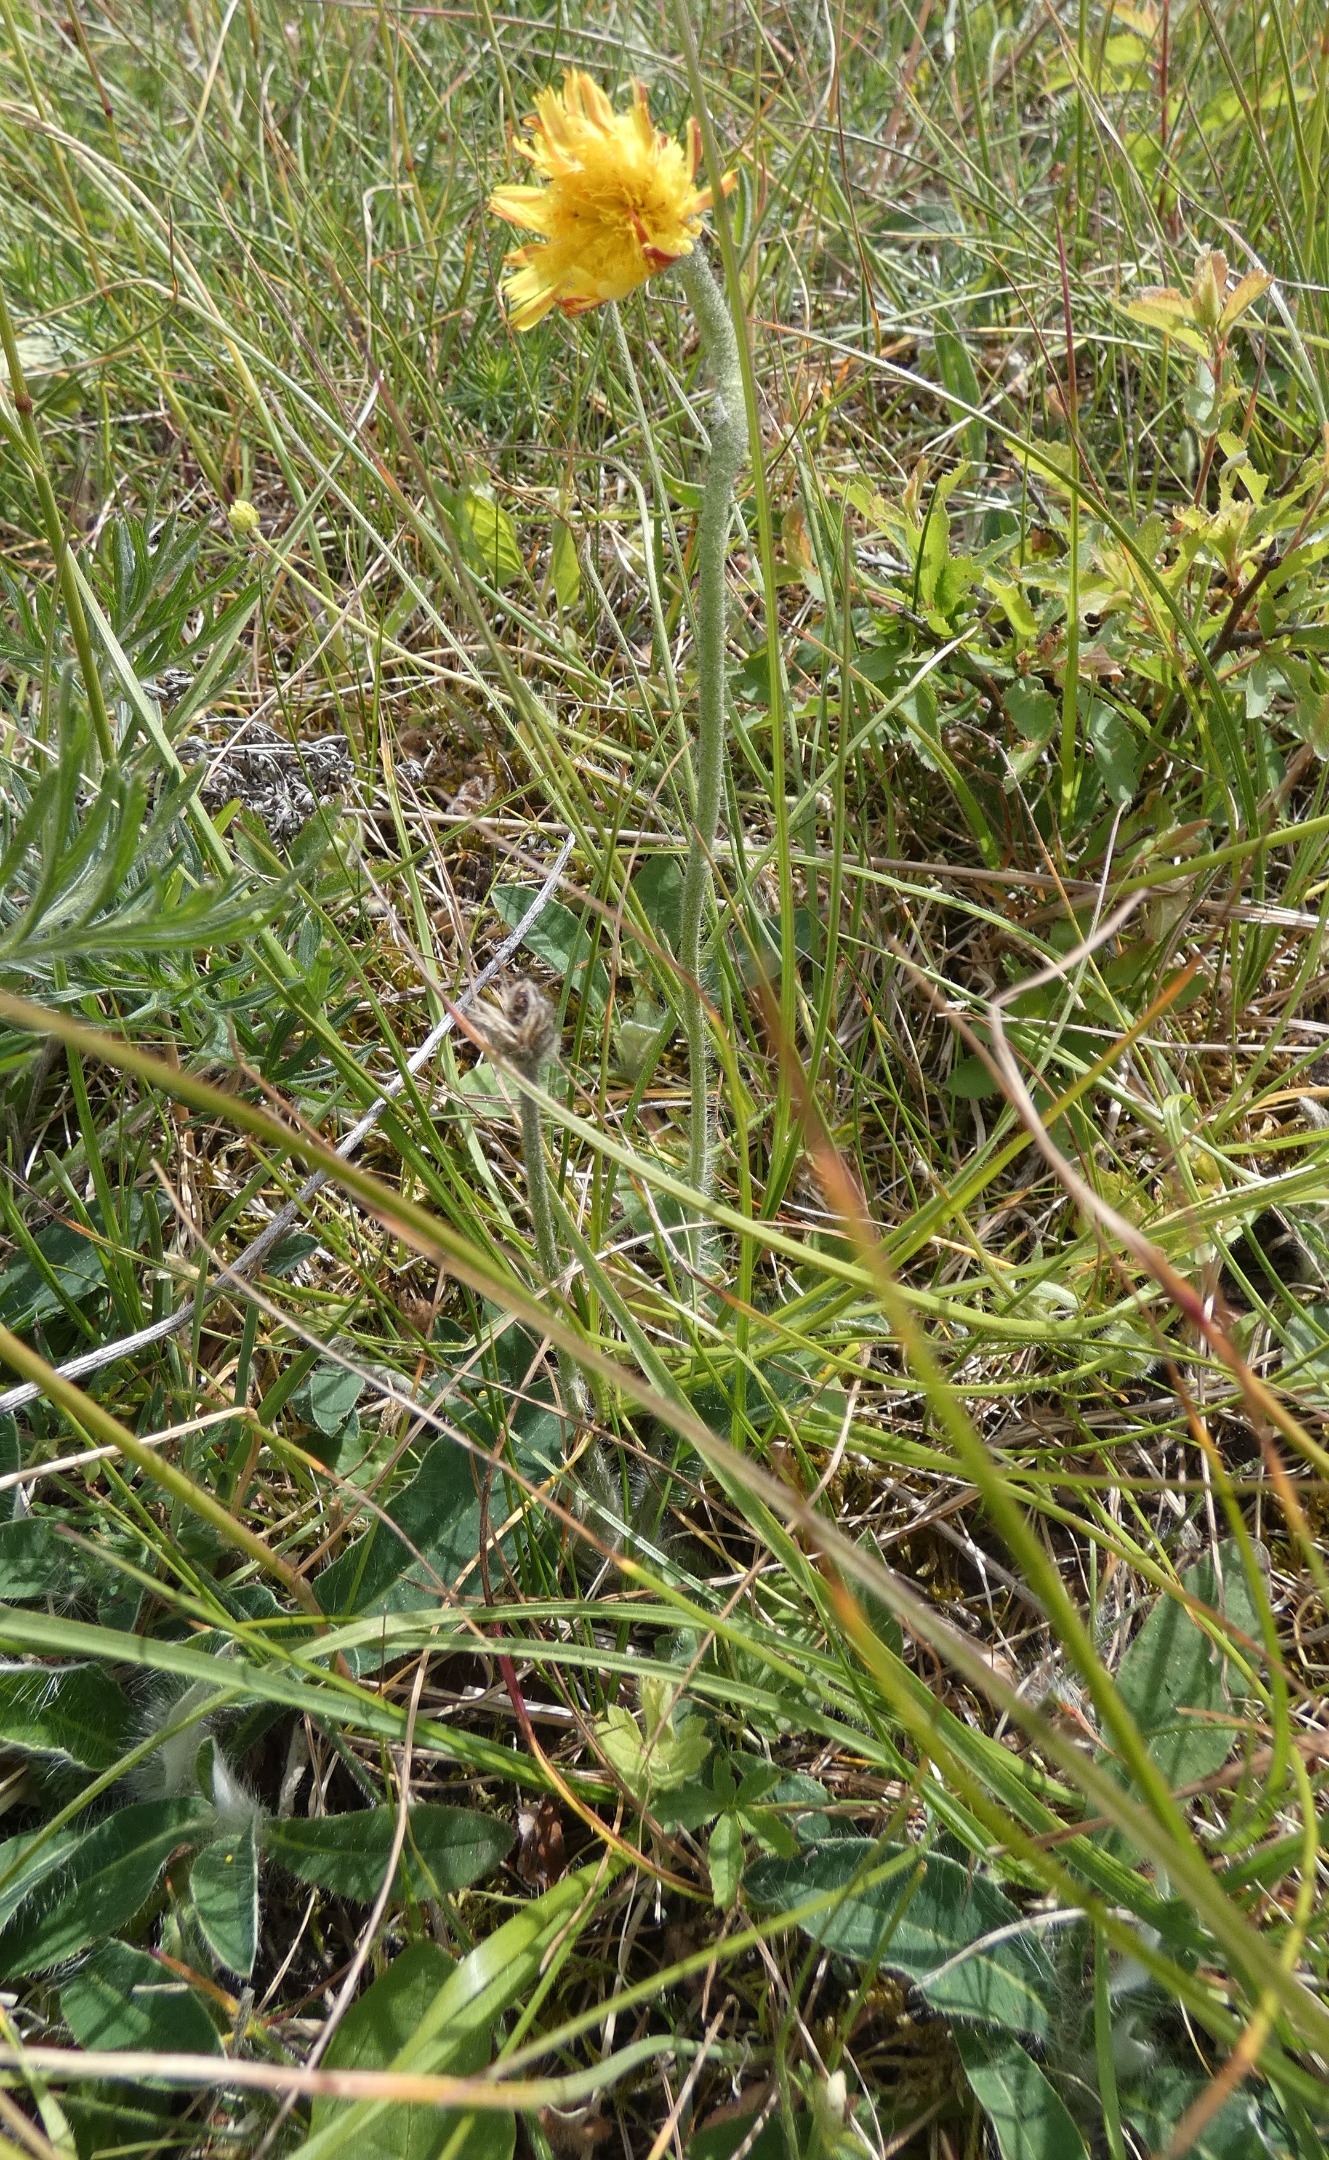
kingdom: Plantae
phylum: Tracheophyta
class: Magnoliopsida
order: Asterales
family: Asteraceae
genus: Pilosella
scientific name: Pilosella officinarum
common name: Håret høgeurt
